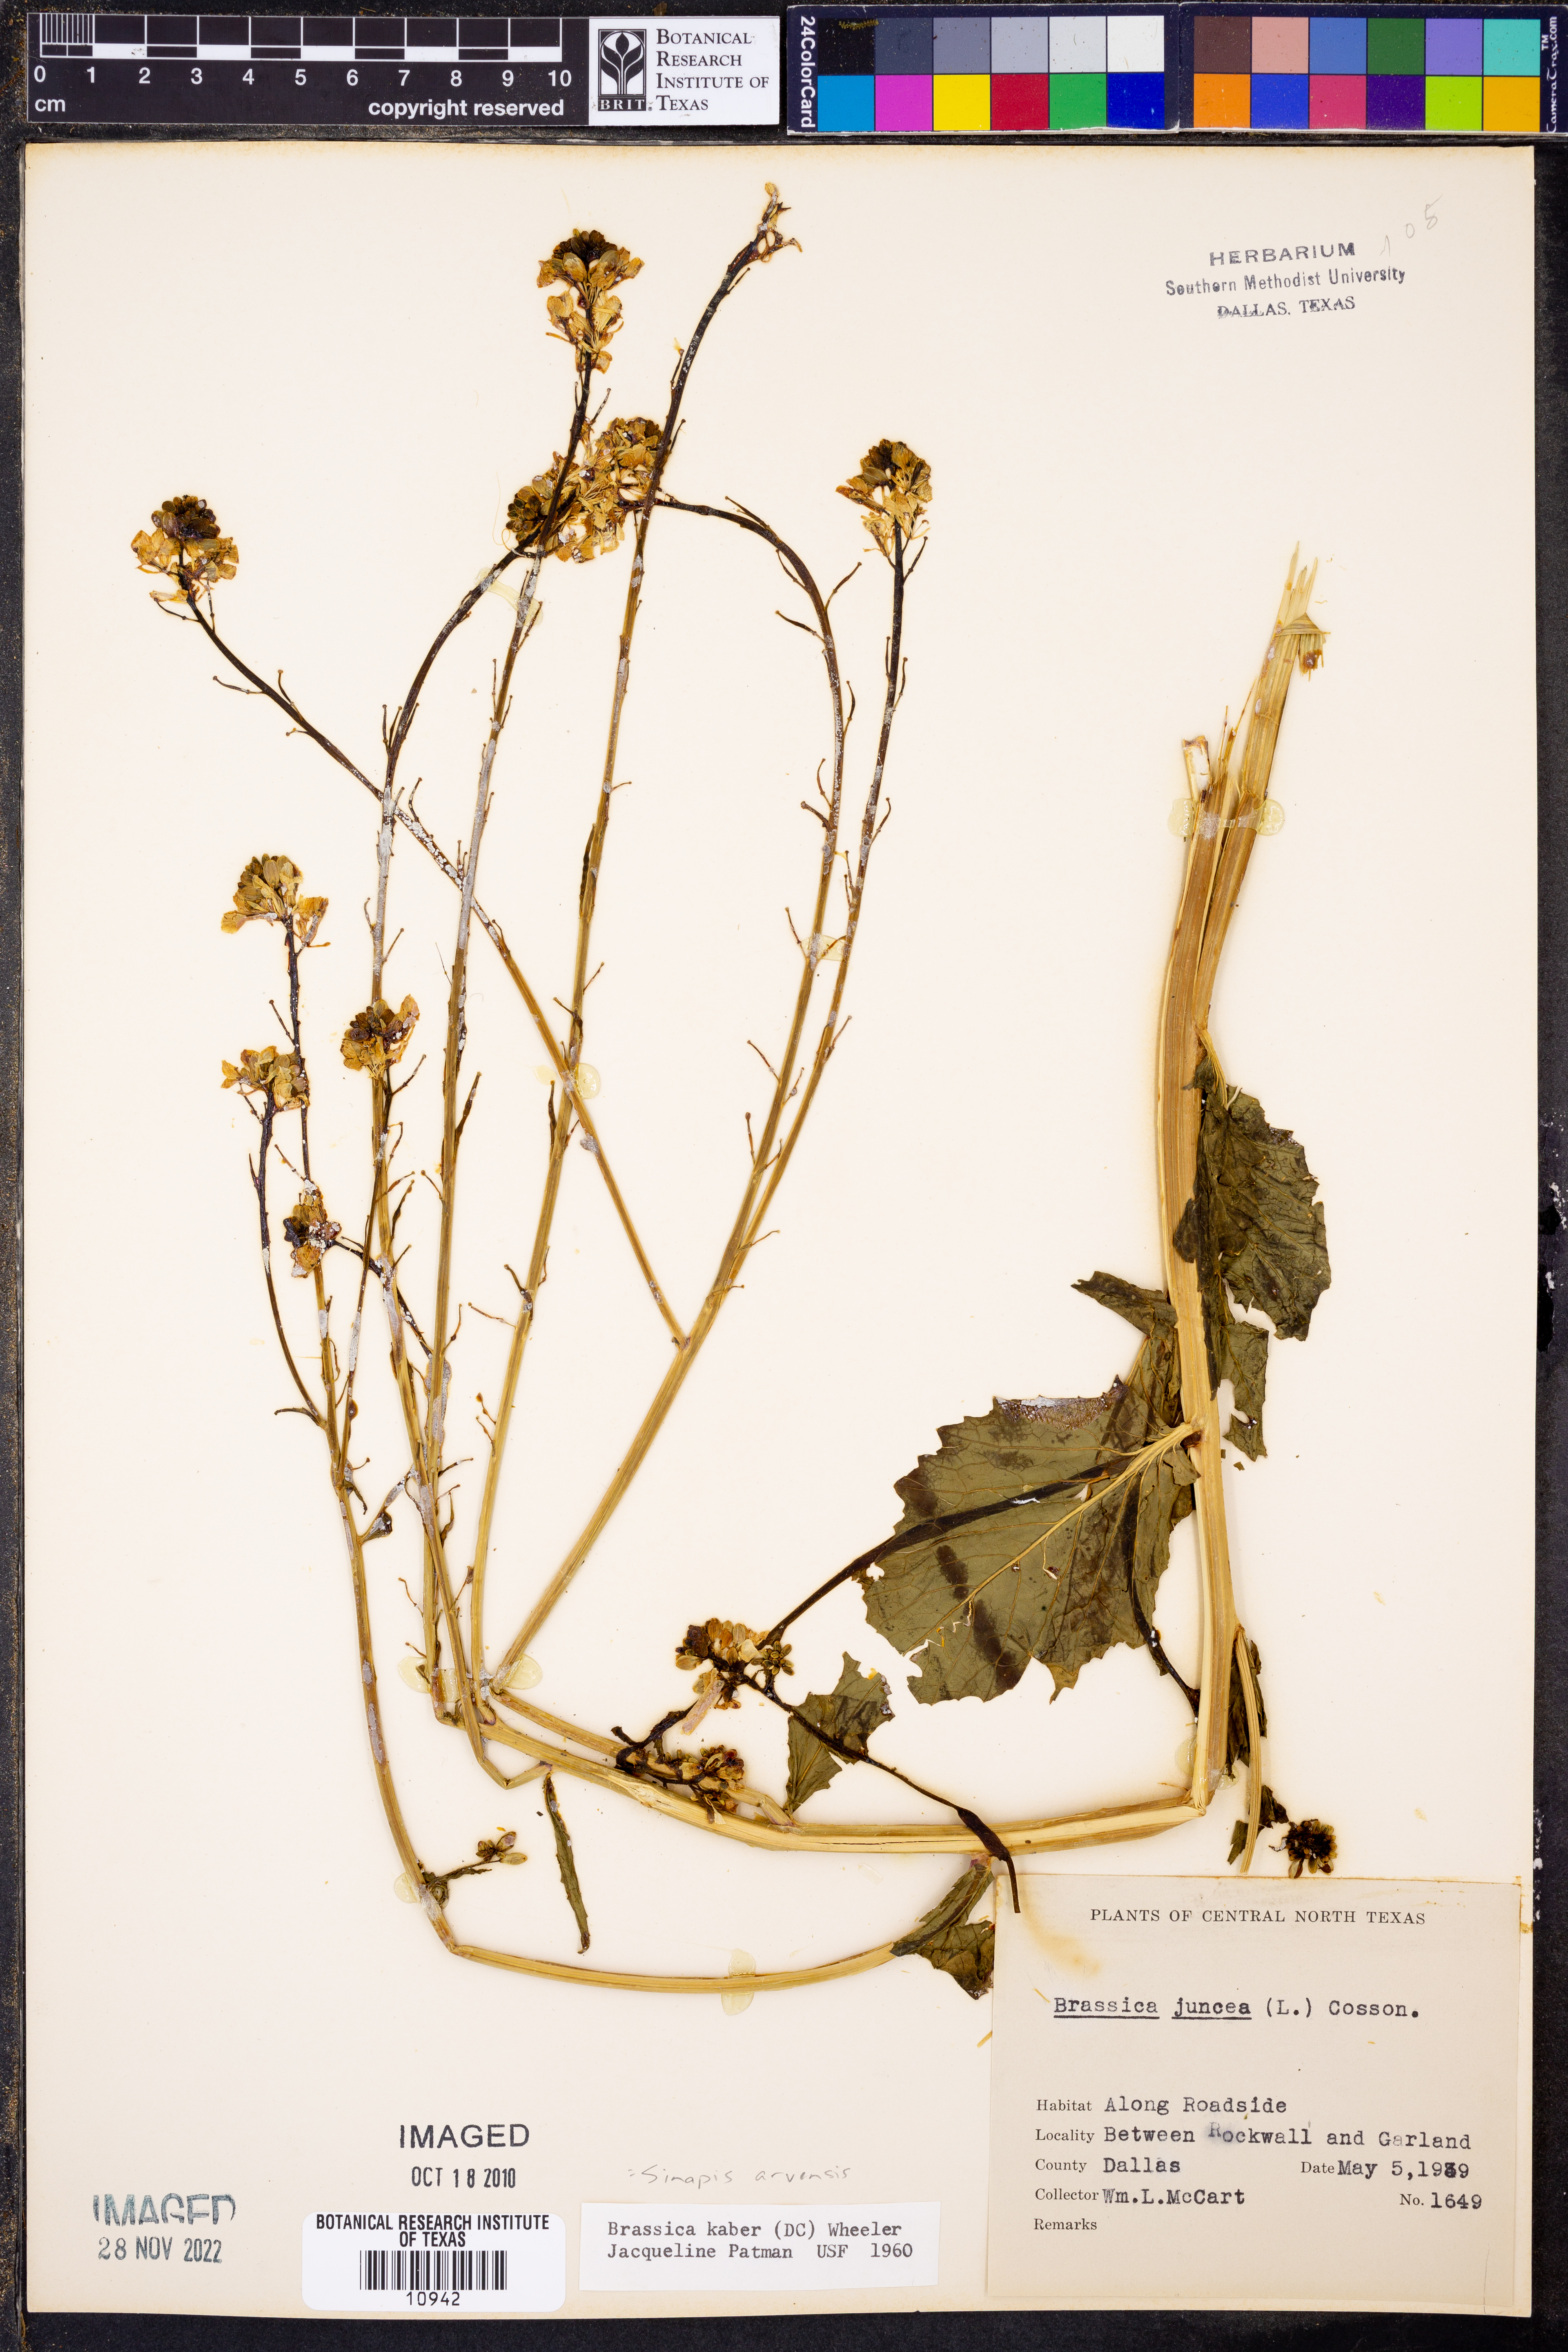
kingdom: Plantae
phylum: Tracheophyta
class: Magnoliopsida
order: Brassicales
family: Brassicaceae
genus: Sinapis
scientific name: Sinapis arvensis
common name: Charlock
